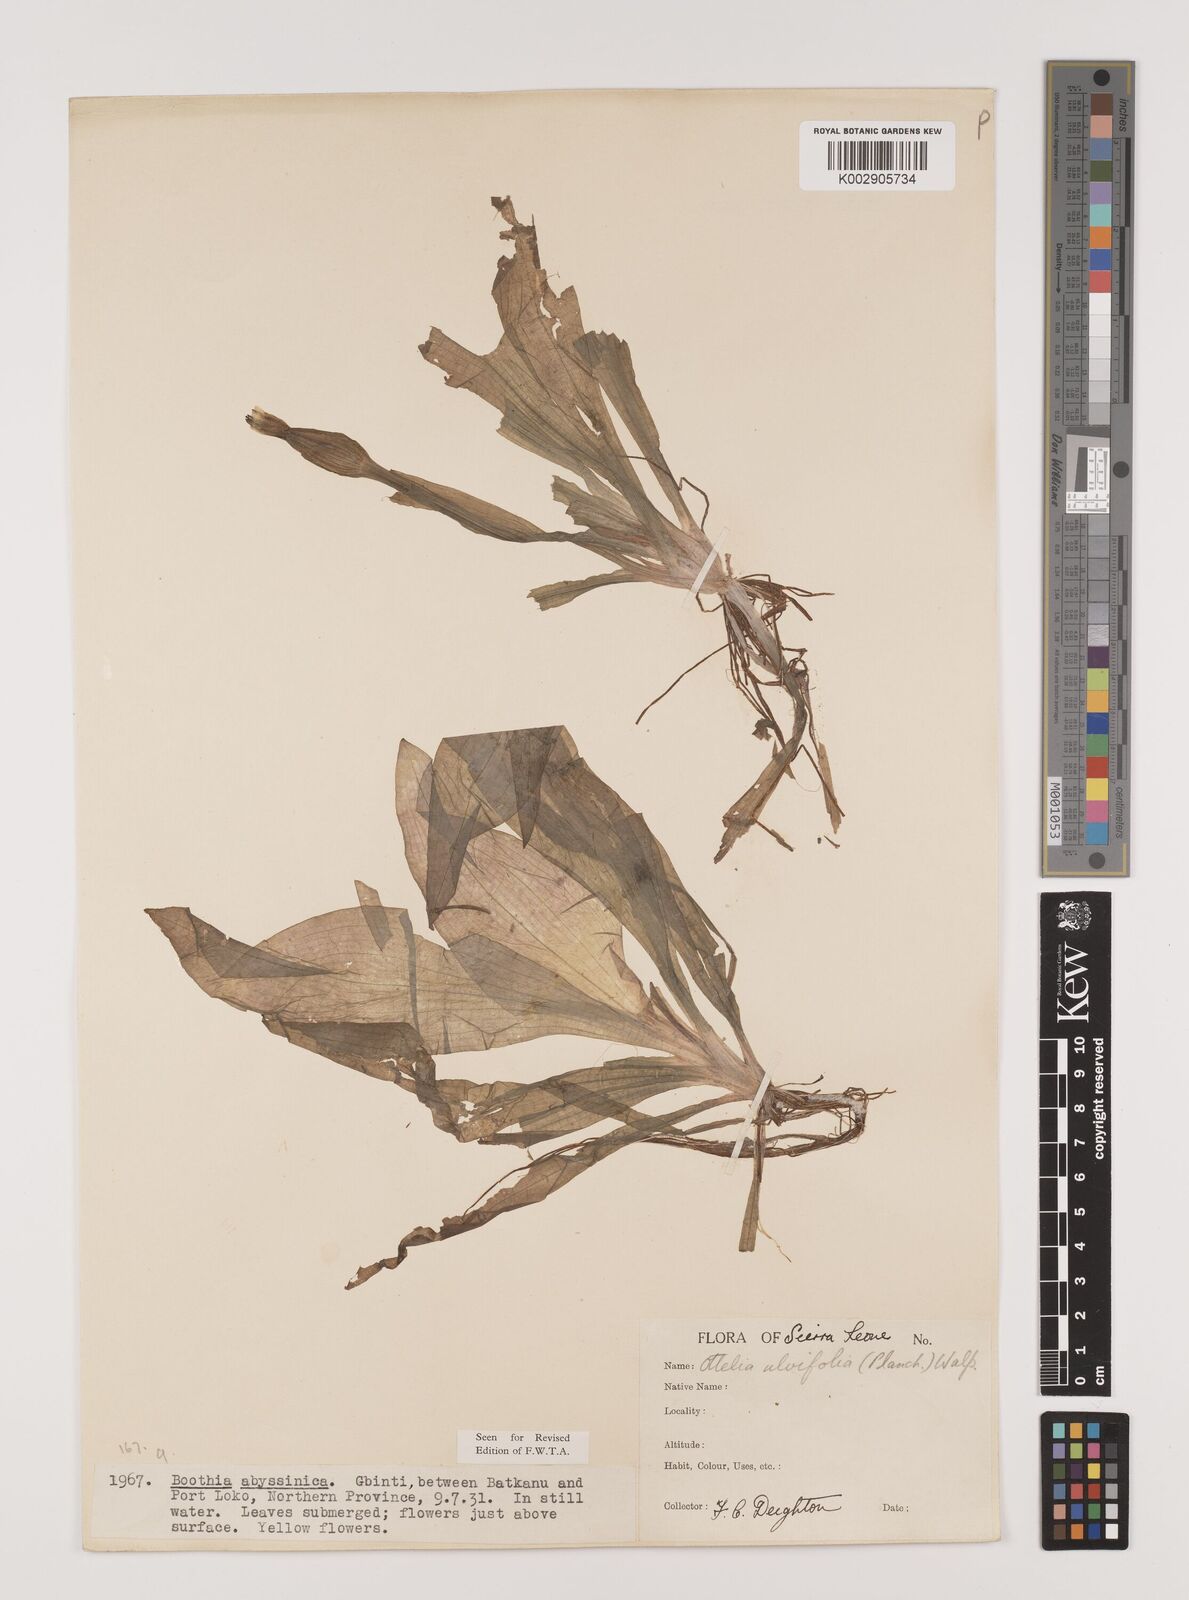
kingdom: Plantae
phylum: Tracheophyta
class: Liliopsida
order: Alismatales
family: Hydrocharitaceae
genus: Ottelia
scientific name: Ottelia ulvifolia
